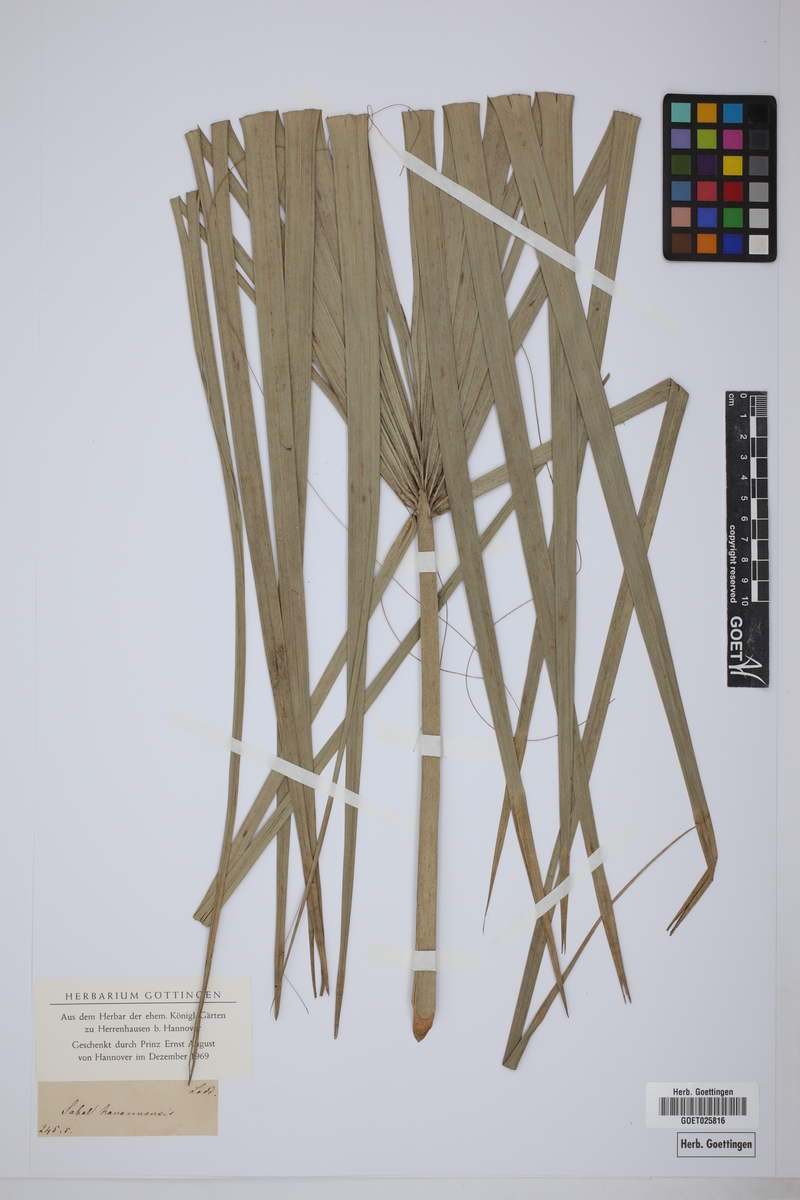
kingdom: Plantae
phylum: Tracheophyta
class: Liliopsida
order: Arecales
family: Arecaceae
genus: Sabal
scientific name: Sabal havanensis
